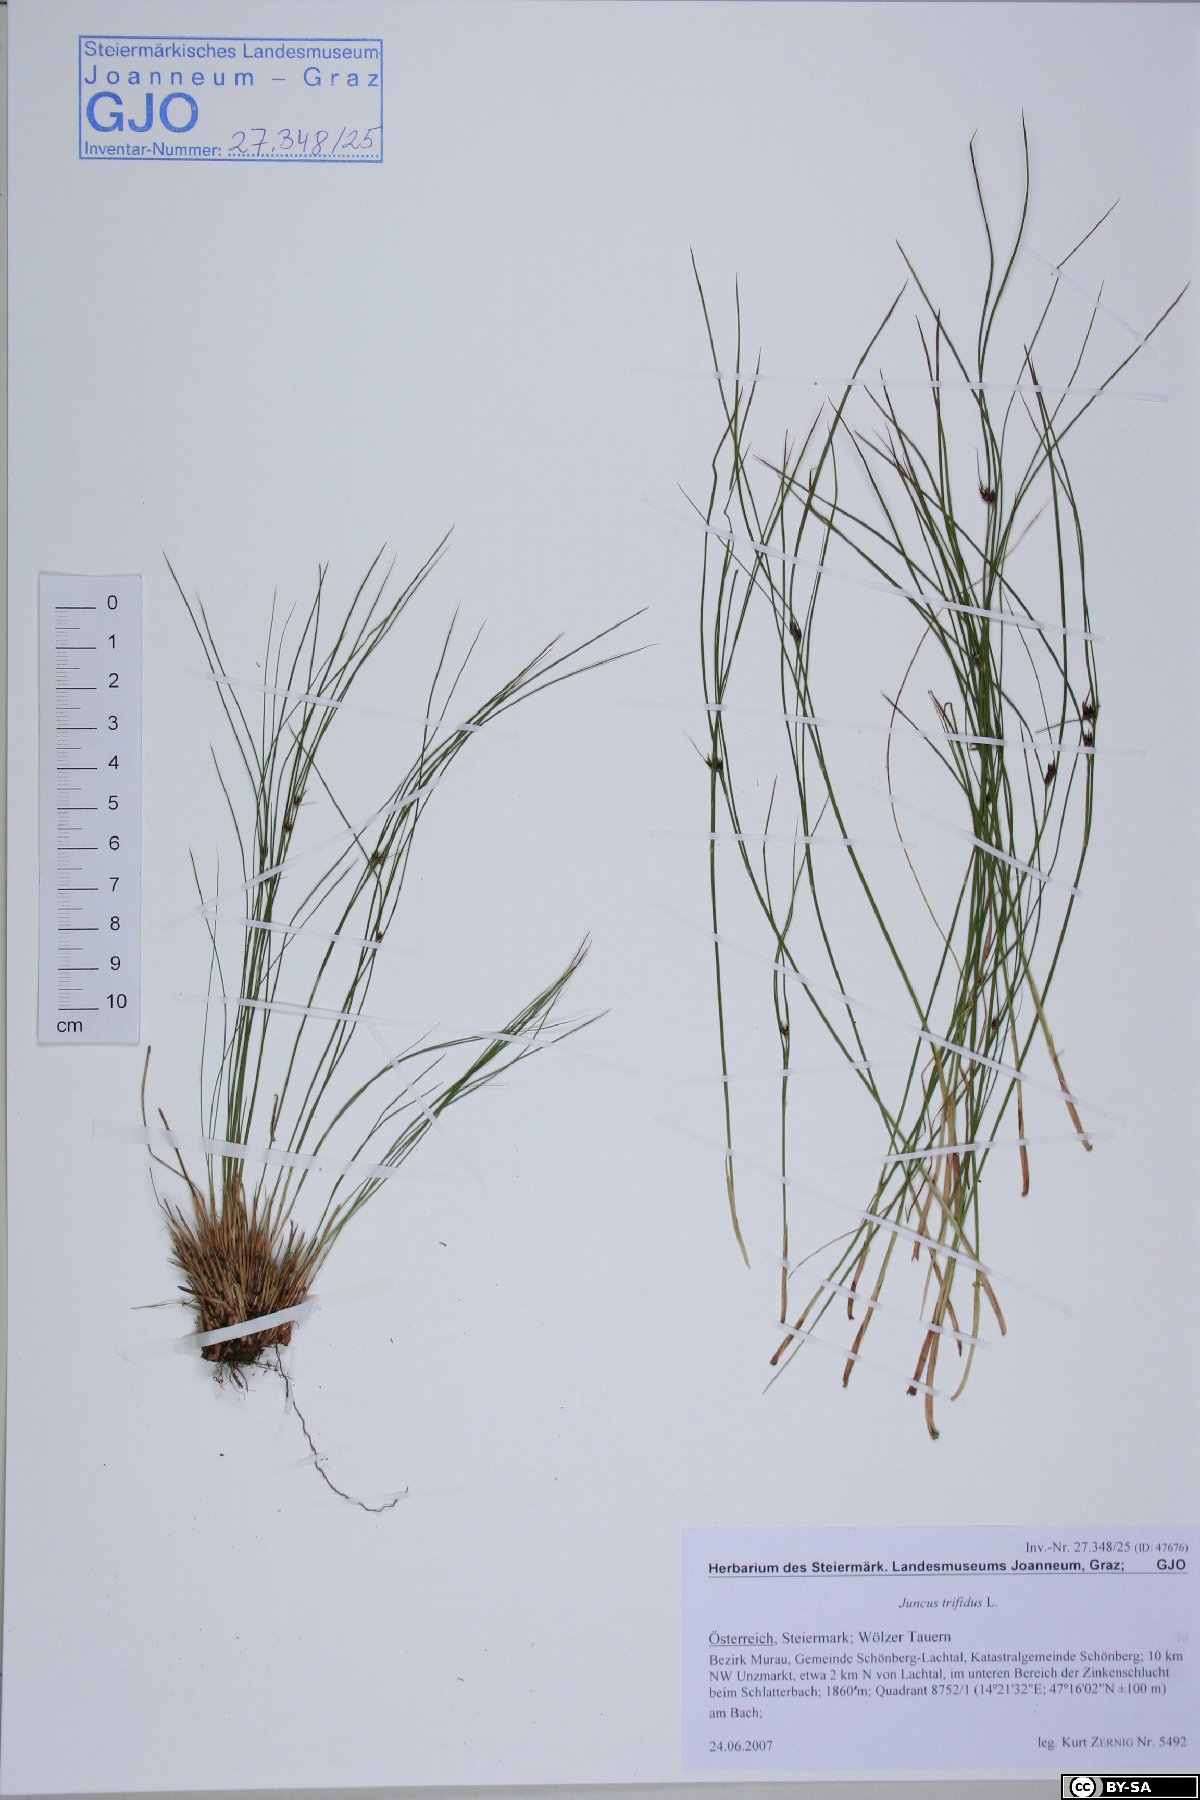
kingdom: Plantae
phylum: Tracheophyta
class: Liliopsida
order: Poales
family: Juncaceae
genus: Oreojuncus
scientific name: Oreojuncus trifidus
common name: Highland rush
